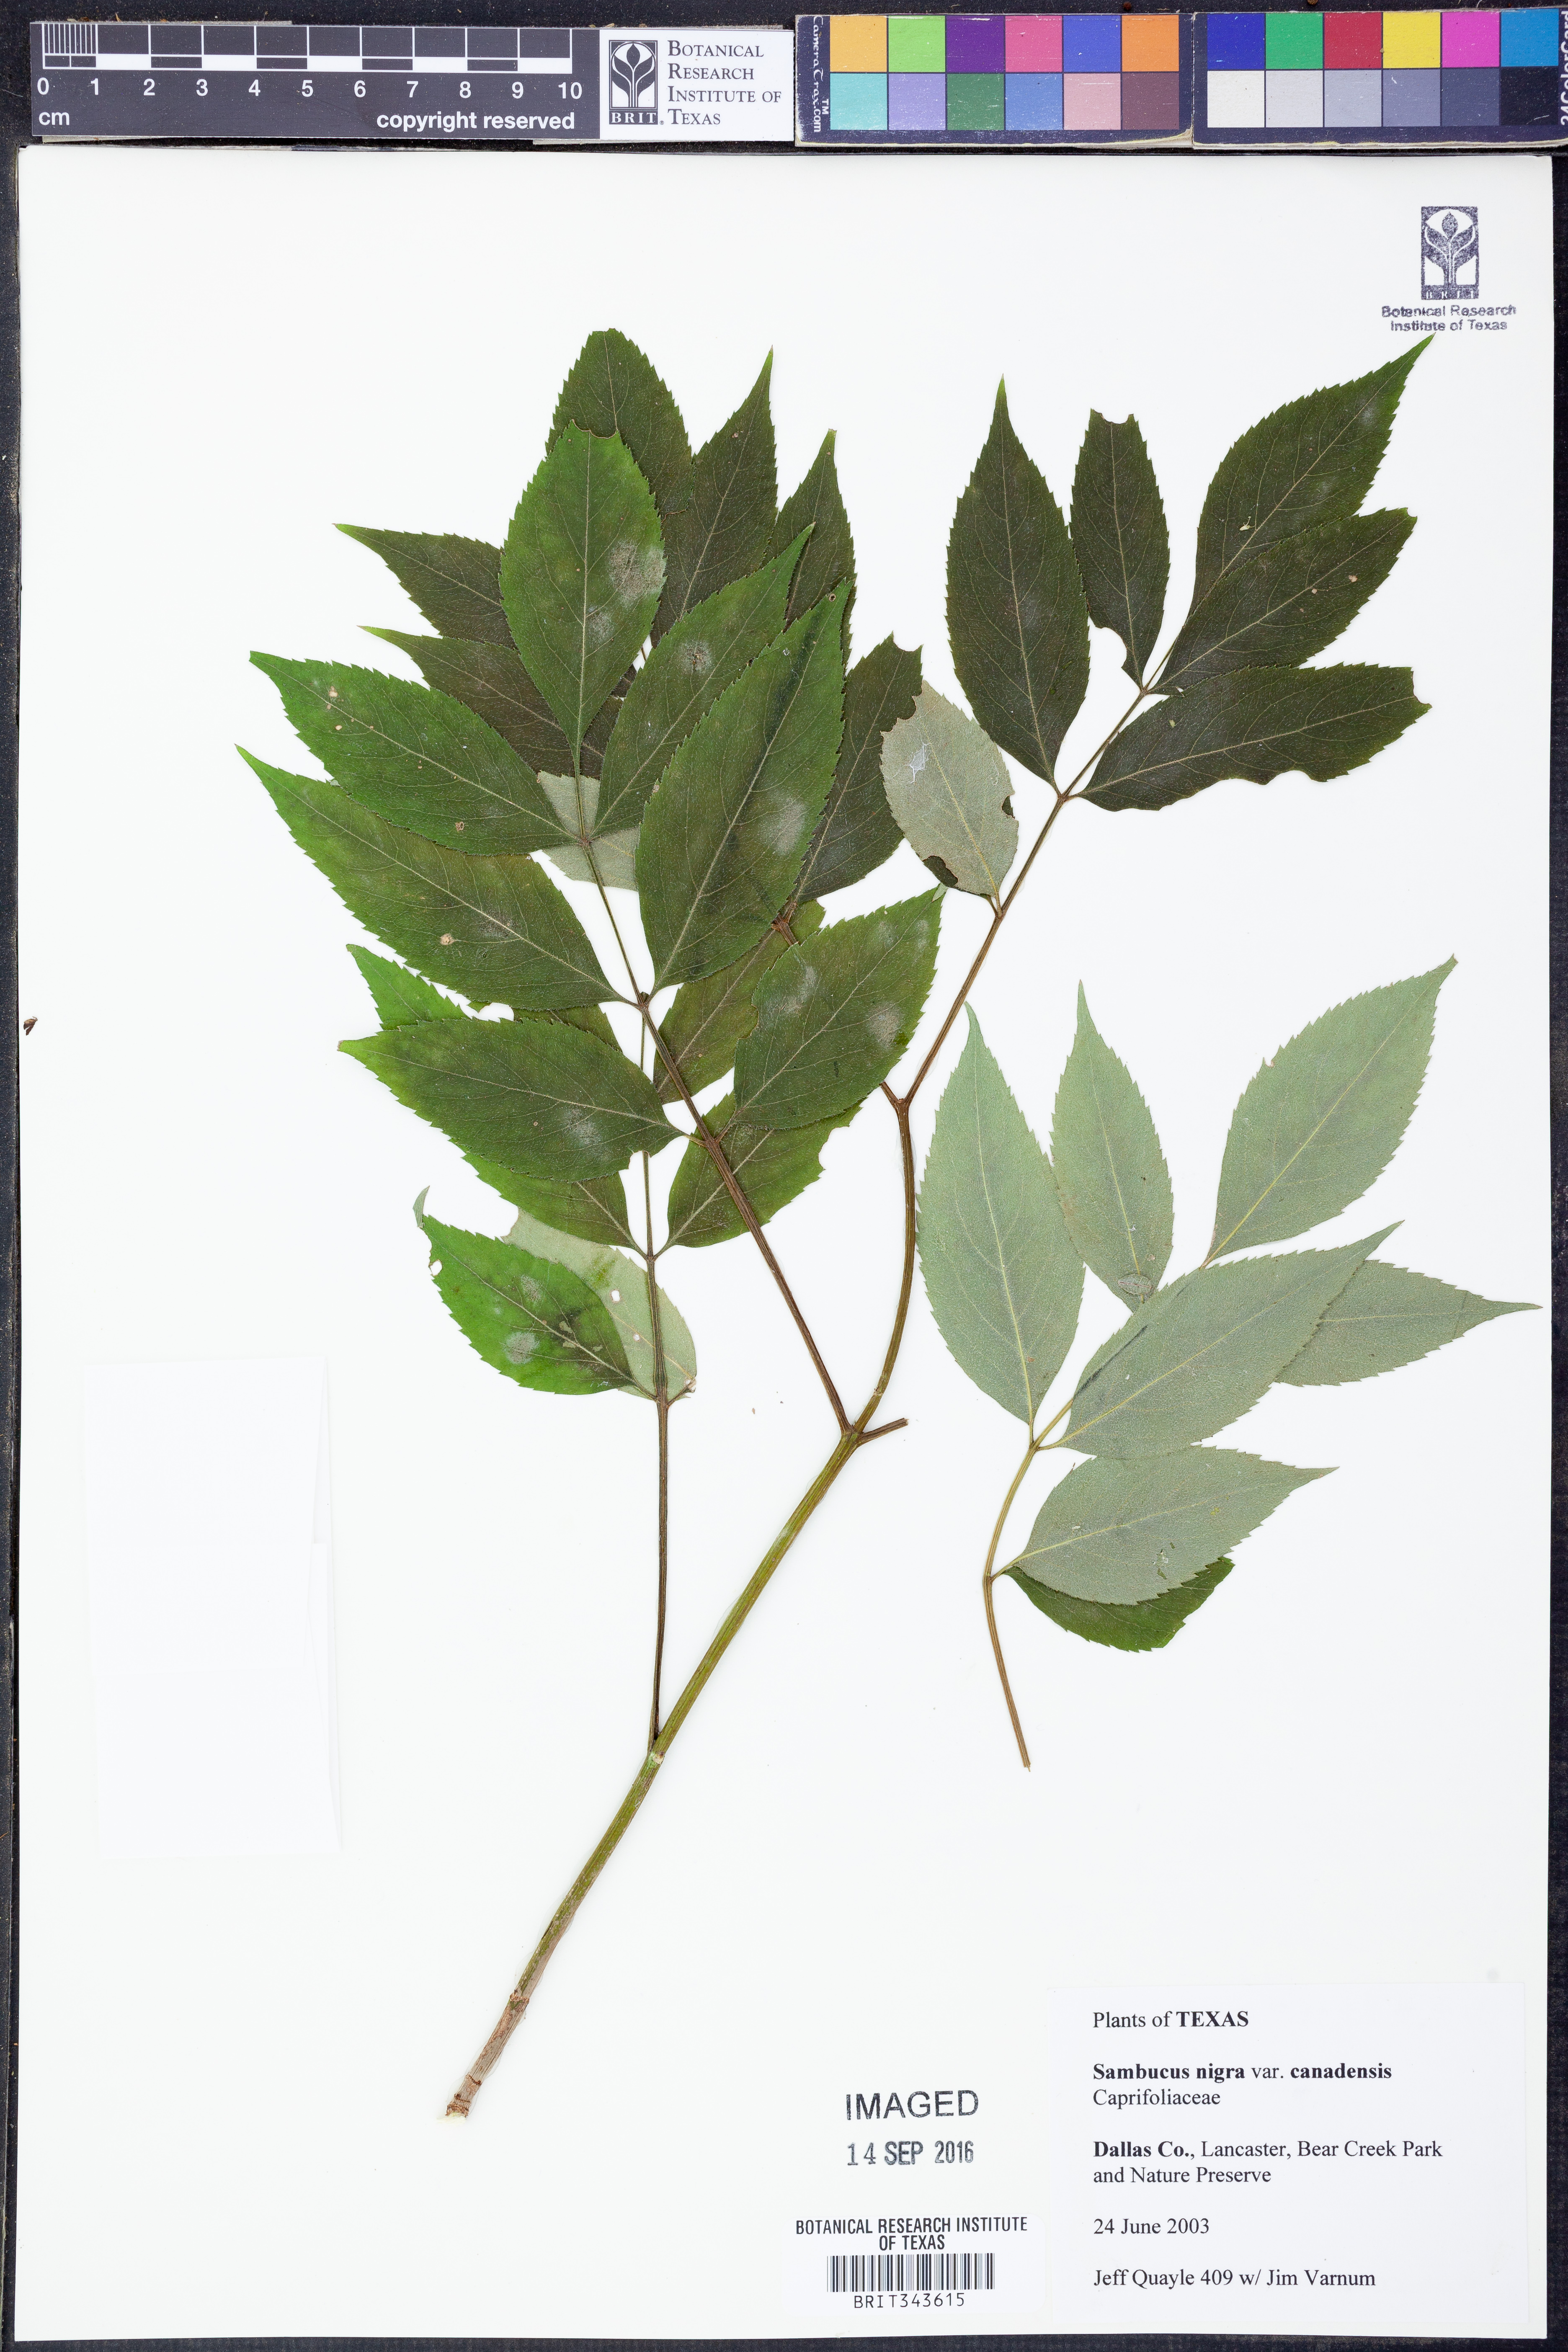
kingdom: Plantae
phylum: Tracheophyta
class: Magnoliopsida
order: Dipsacales
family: Viburnaceae
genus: Sambucus
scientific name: Sambucus canadensis
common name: American elder
